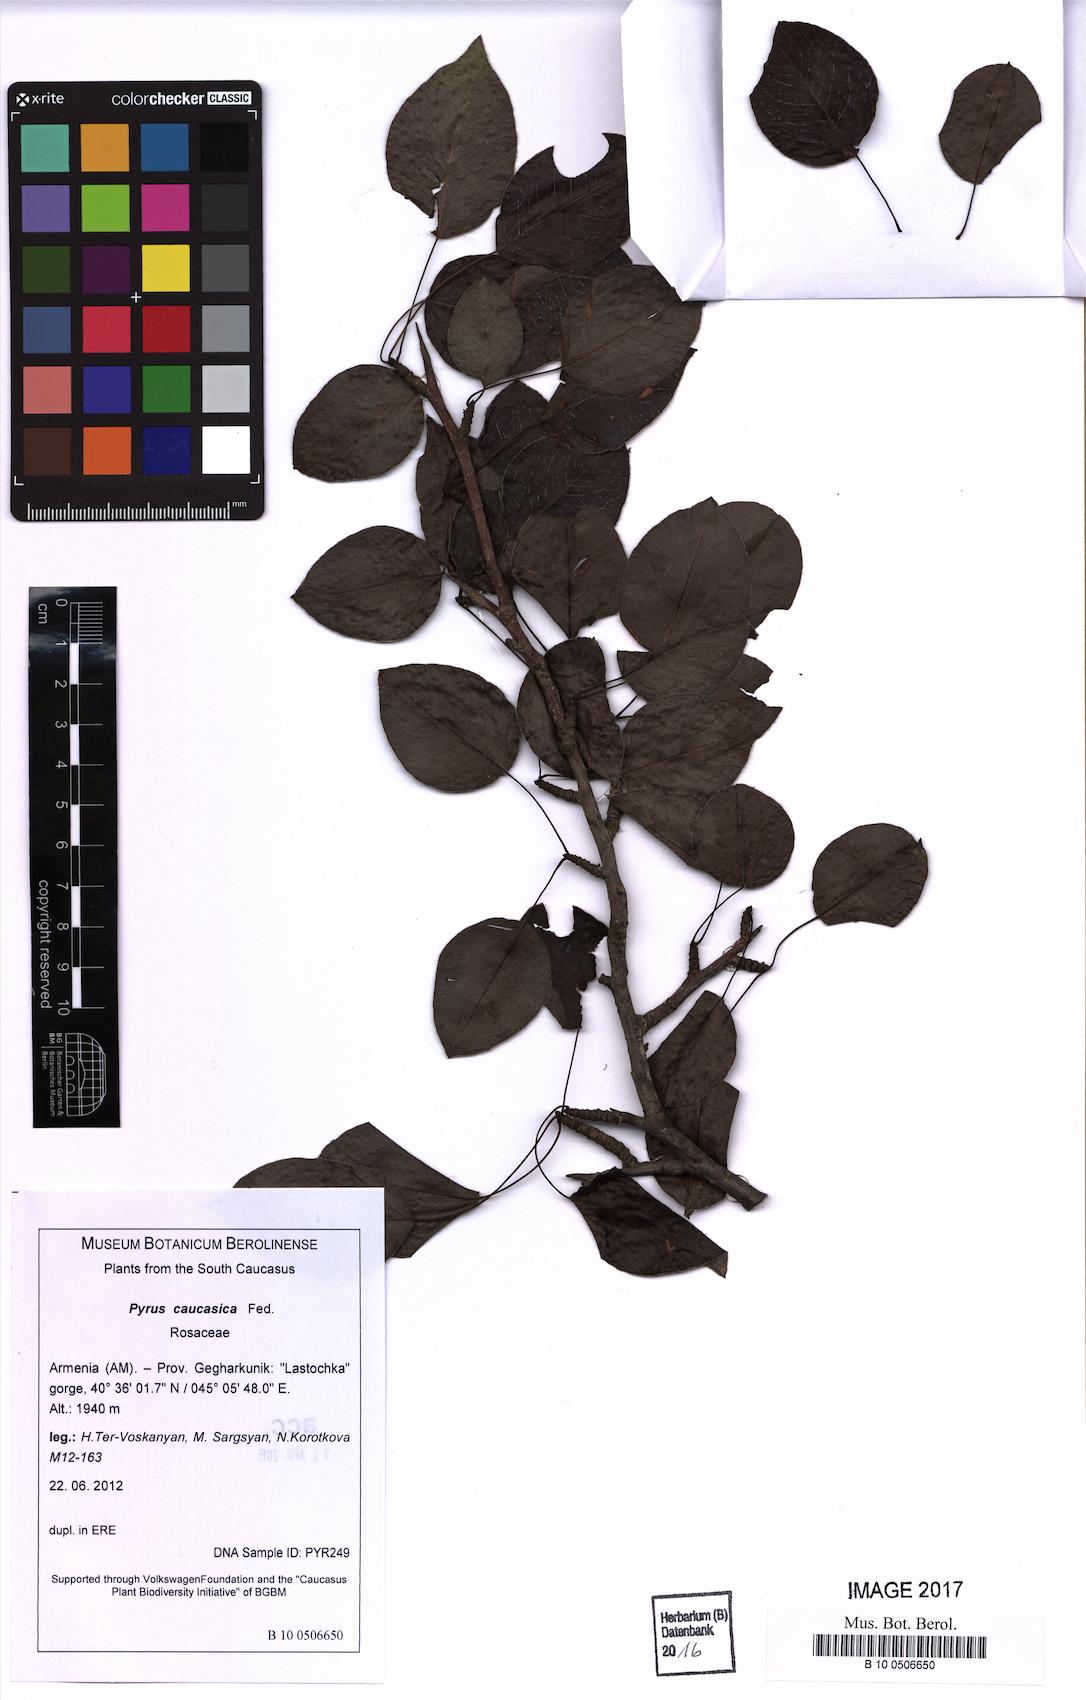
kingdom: Plantae
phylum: Tracheophyta
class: Magnoliopsida
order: Rosales
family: Rosaceae
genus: Pyrus
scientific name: Pyrus communis
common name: Pear
